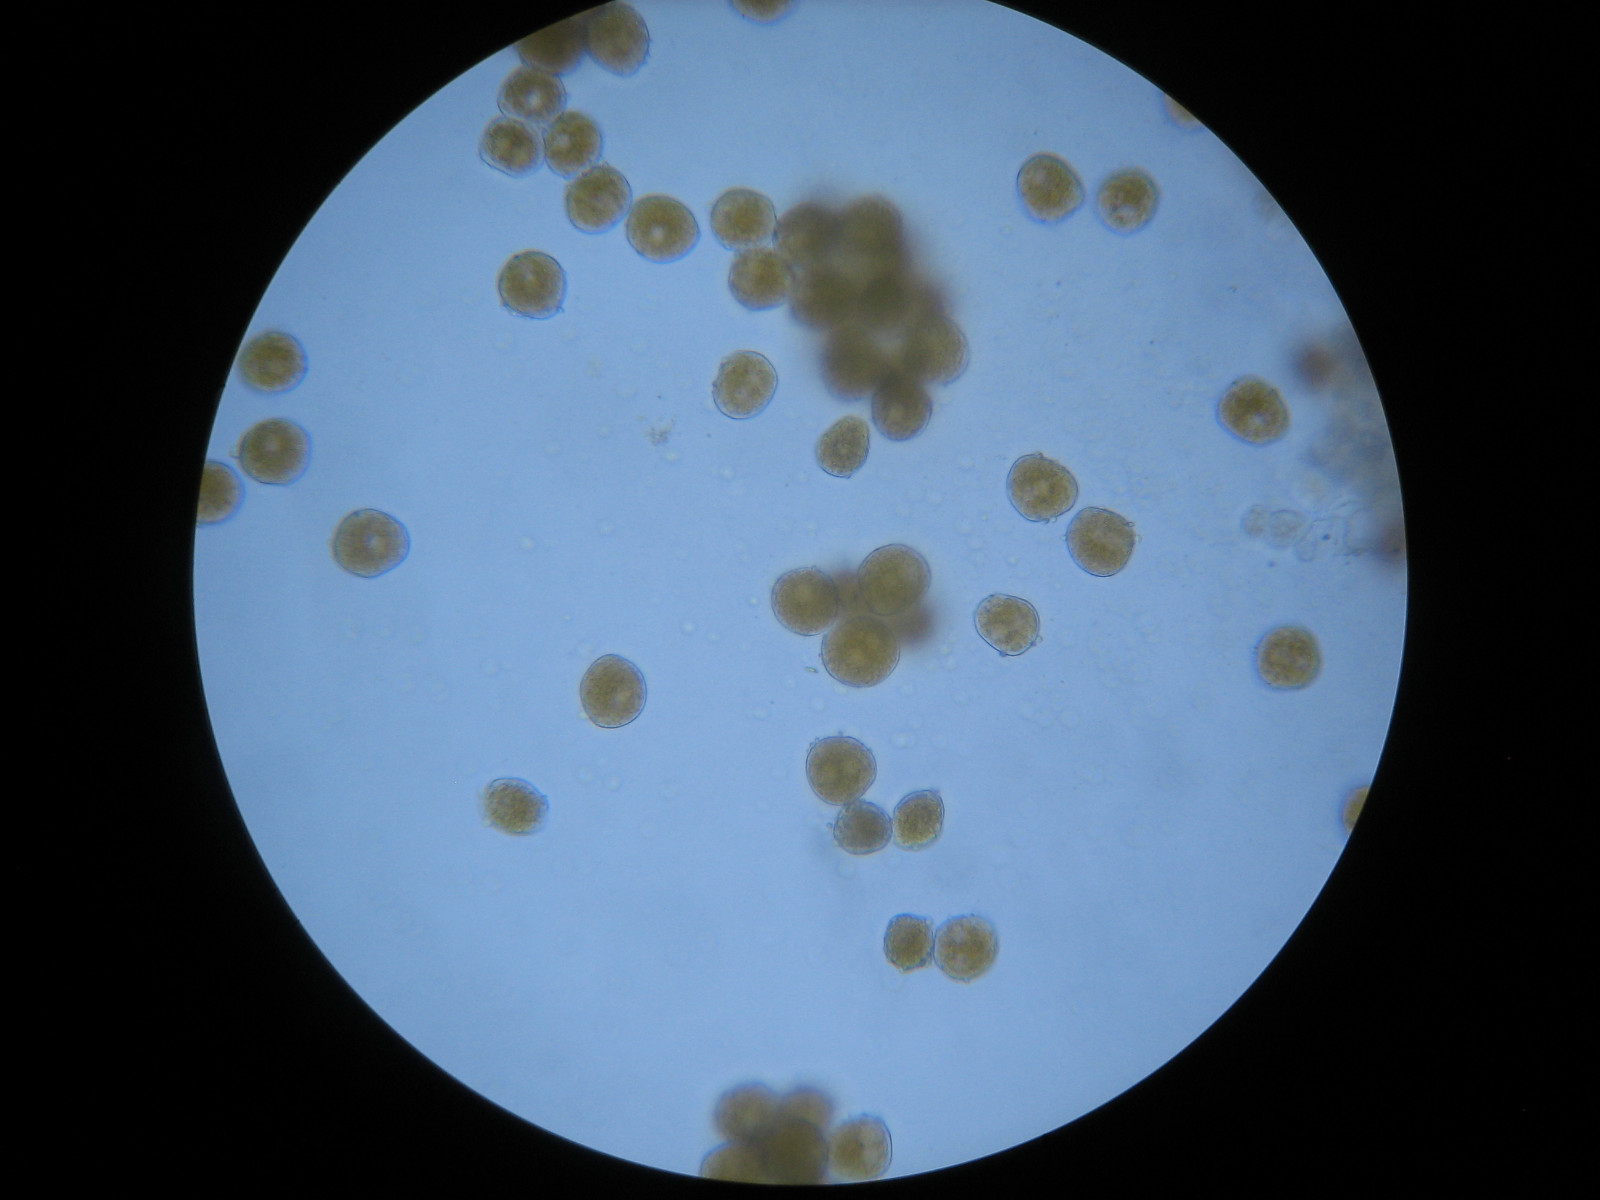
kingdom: Fungi
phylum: Basidiomycota
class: Pucciniomycetes
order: Pucciniales
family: Pucciniaceae
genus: Puccinia
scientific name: Puccinia urticata
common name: nældegalle-tvecellerust
